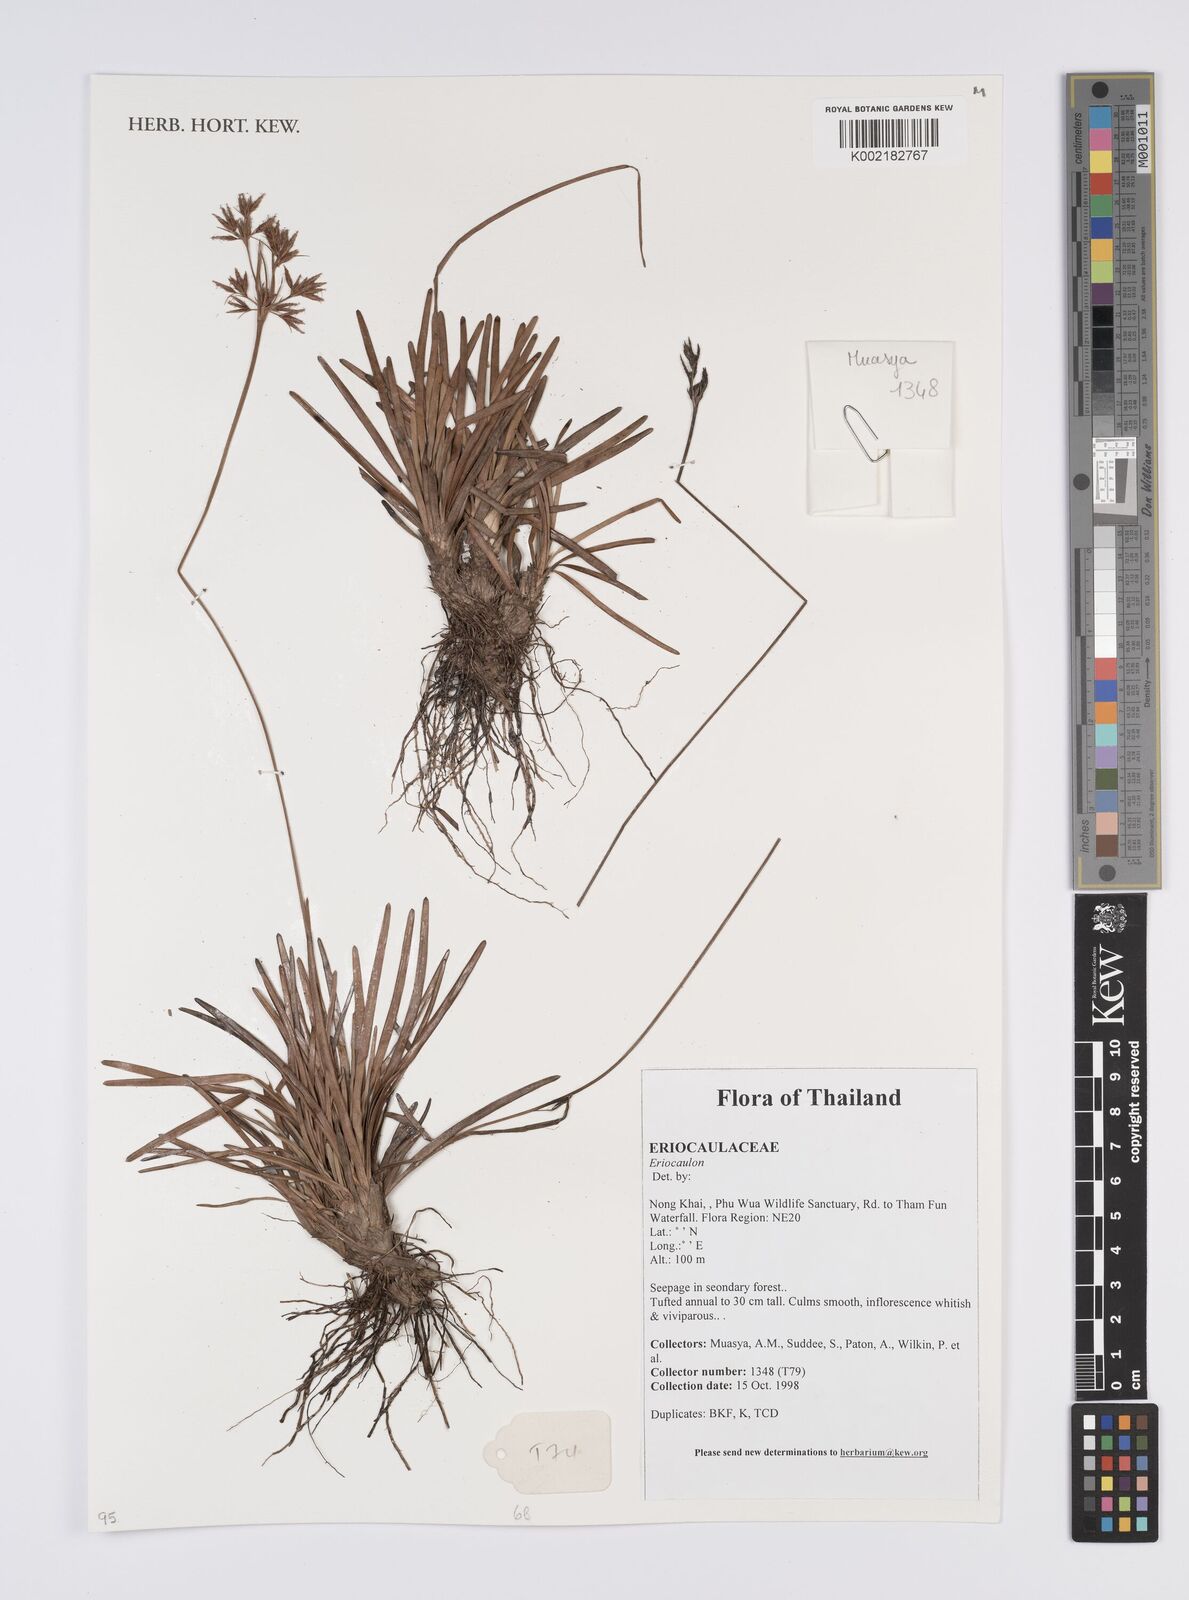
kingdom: Plantae
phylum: Tracheophyta
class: Liliopsida
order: Poales
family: Eriocaulaceae
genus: Eriocaulon
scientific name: Eriocaulon
